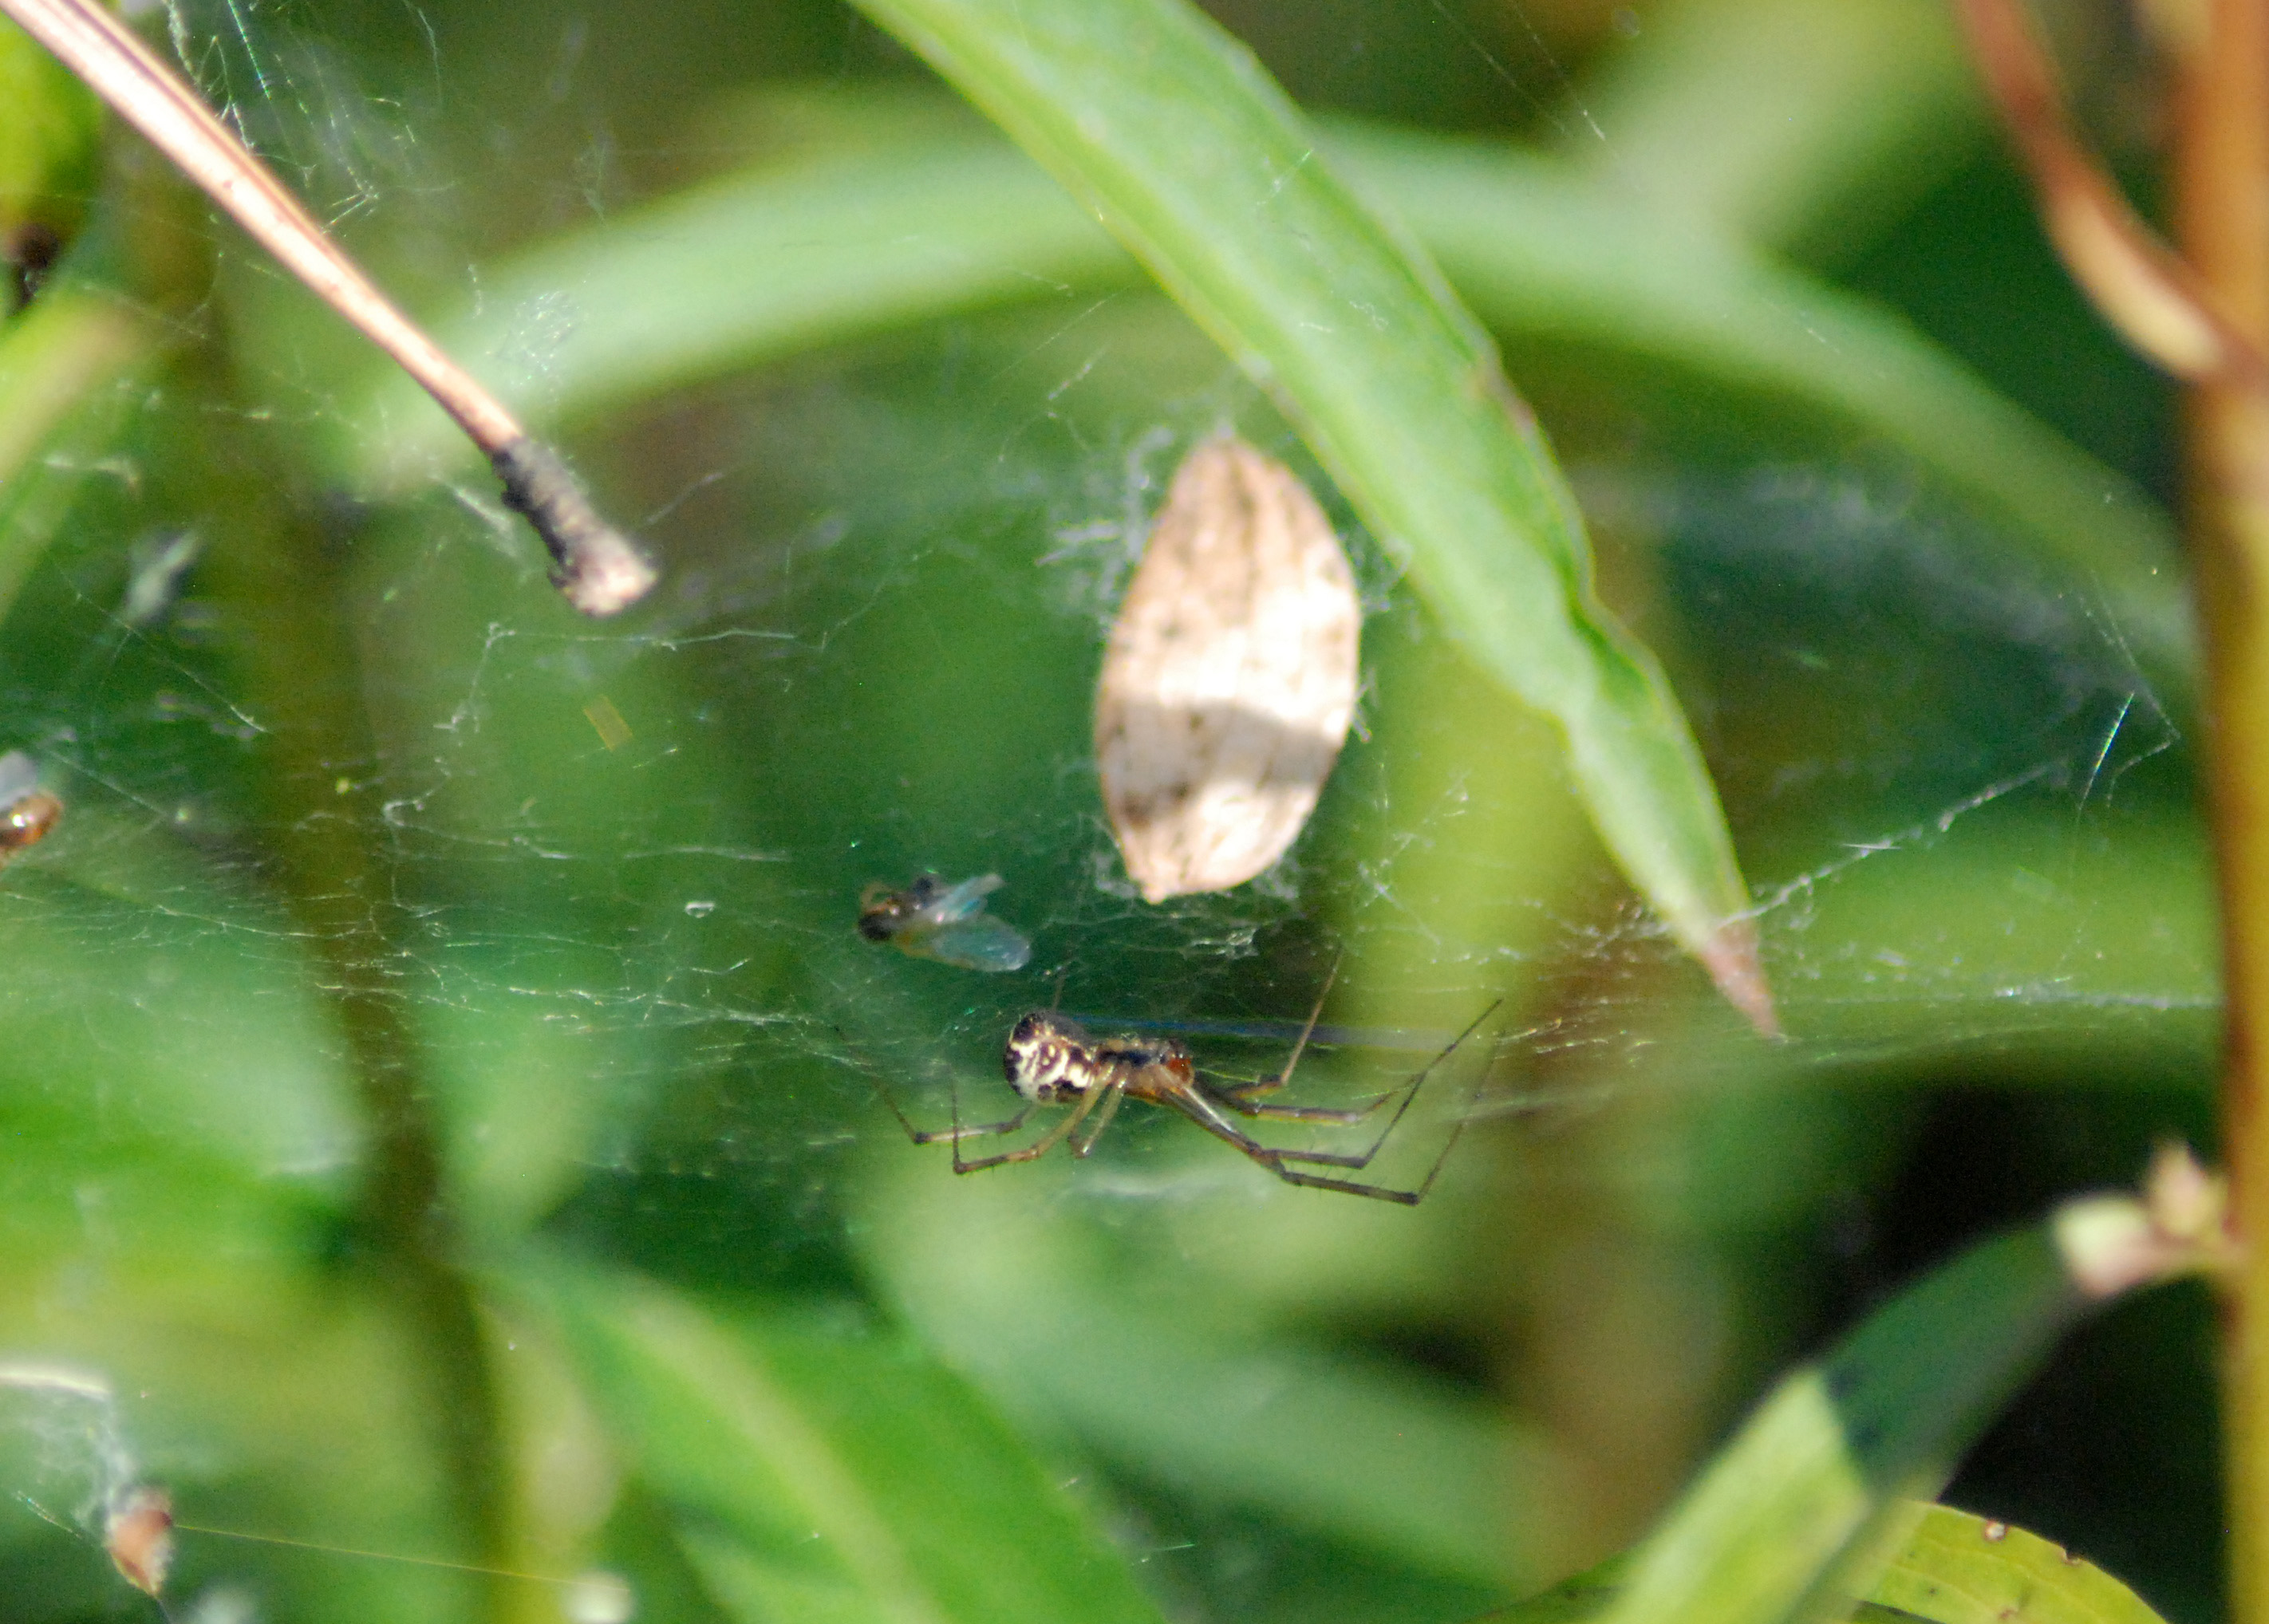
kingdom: Animalia
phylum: Arthropoda
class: Arachnida
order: Araneae
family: Linyphiidae
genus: Linyphia
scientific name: Linyphia triangularis
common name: Money spider
